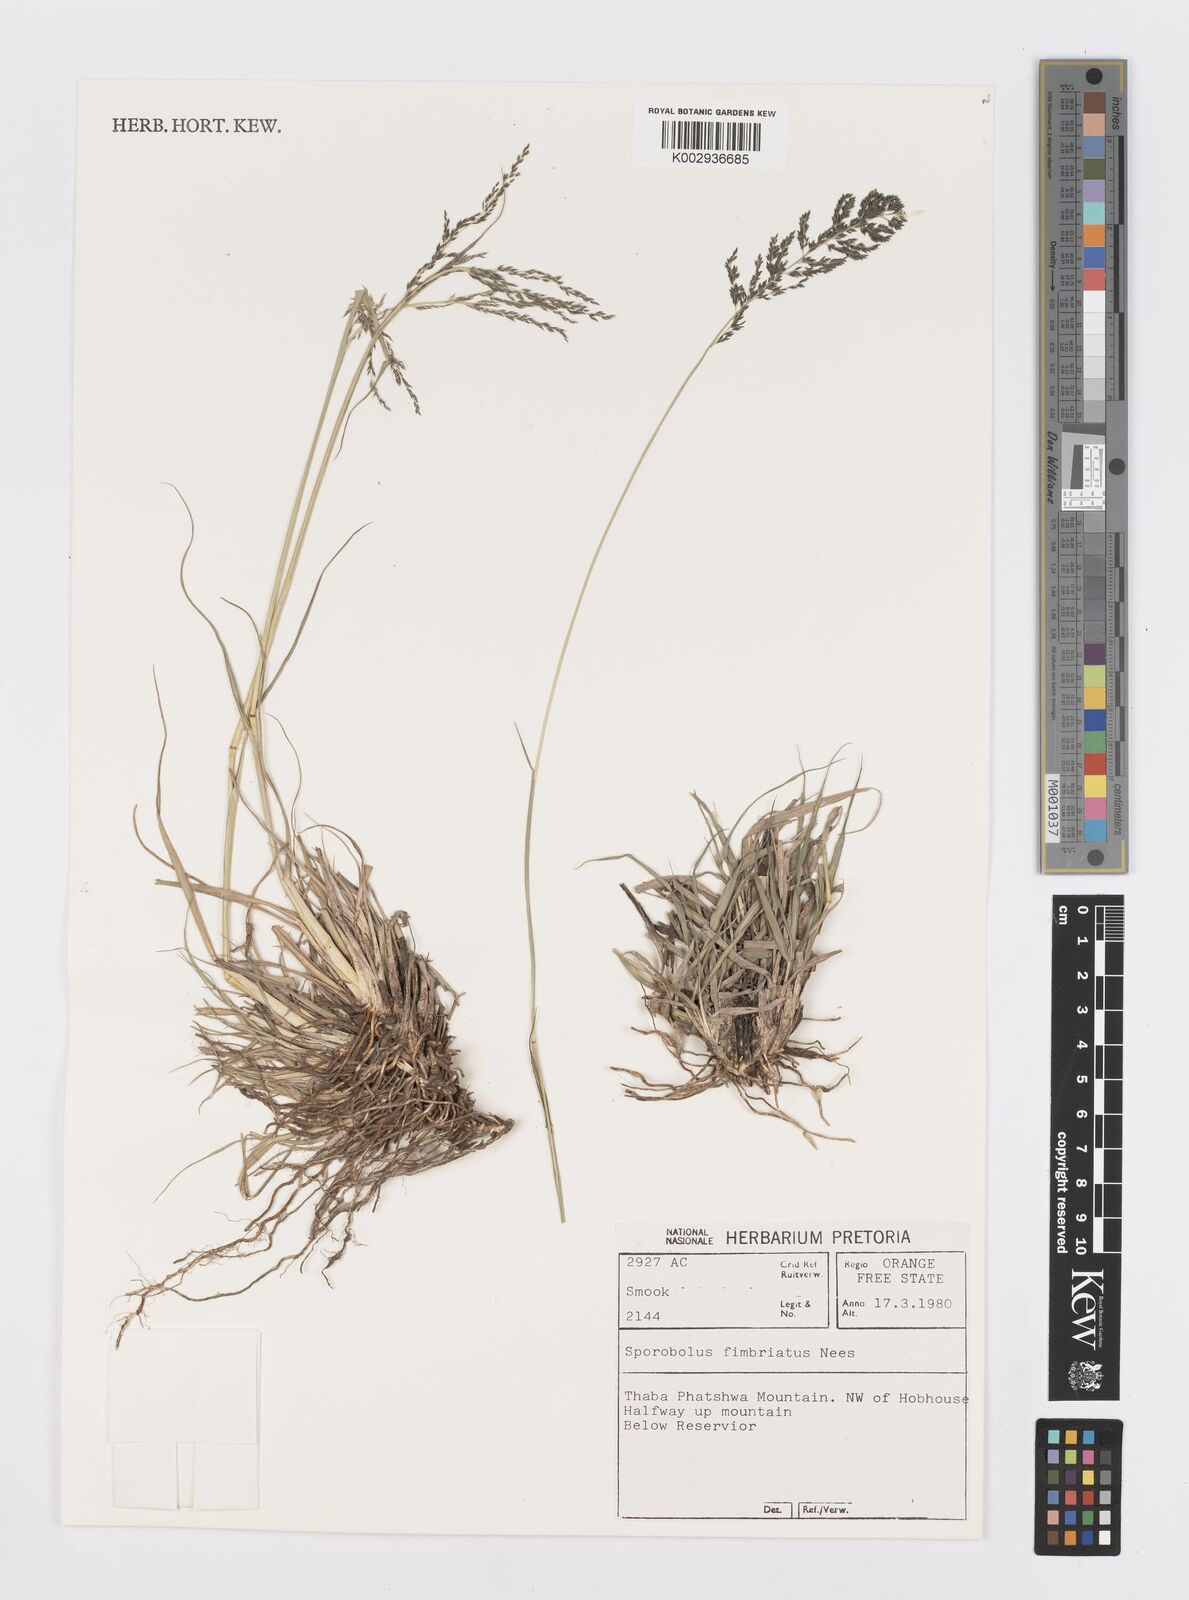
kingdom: Plantae
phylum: Tracheophyta
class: Liliopsida
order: Poales
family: Poaceae
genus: Sporobolus
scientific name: Sporobolus fimbriatus
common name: Fringed dropseed
